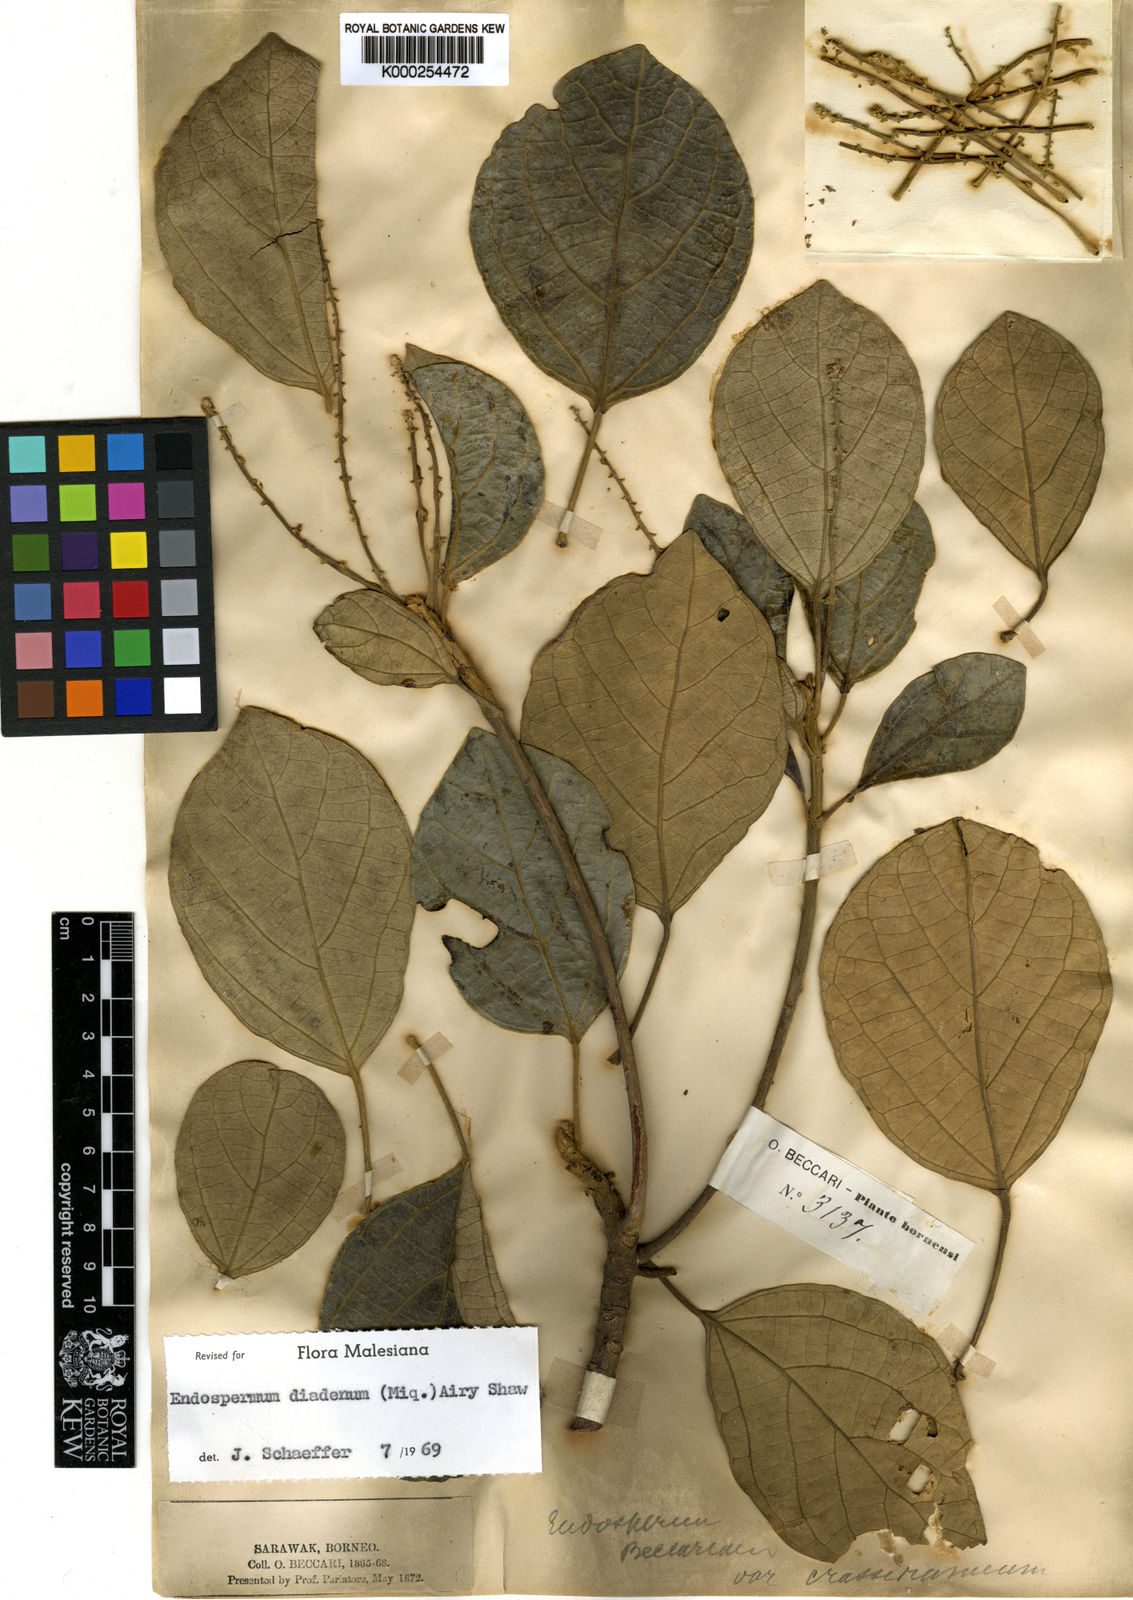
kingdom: Plantae
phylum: Tracheophyta
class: Magnoliopsida
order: Malpighiales
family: Euphorbiaceae
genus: Endospermum
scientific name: Endospermum diadenum
